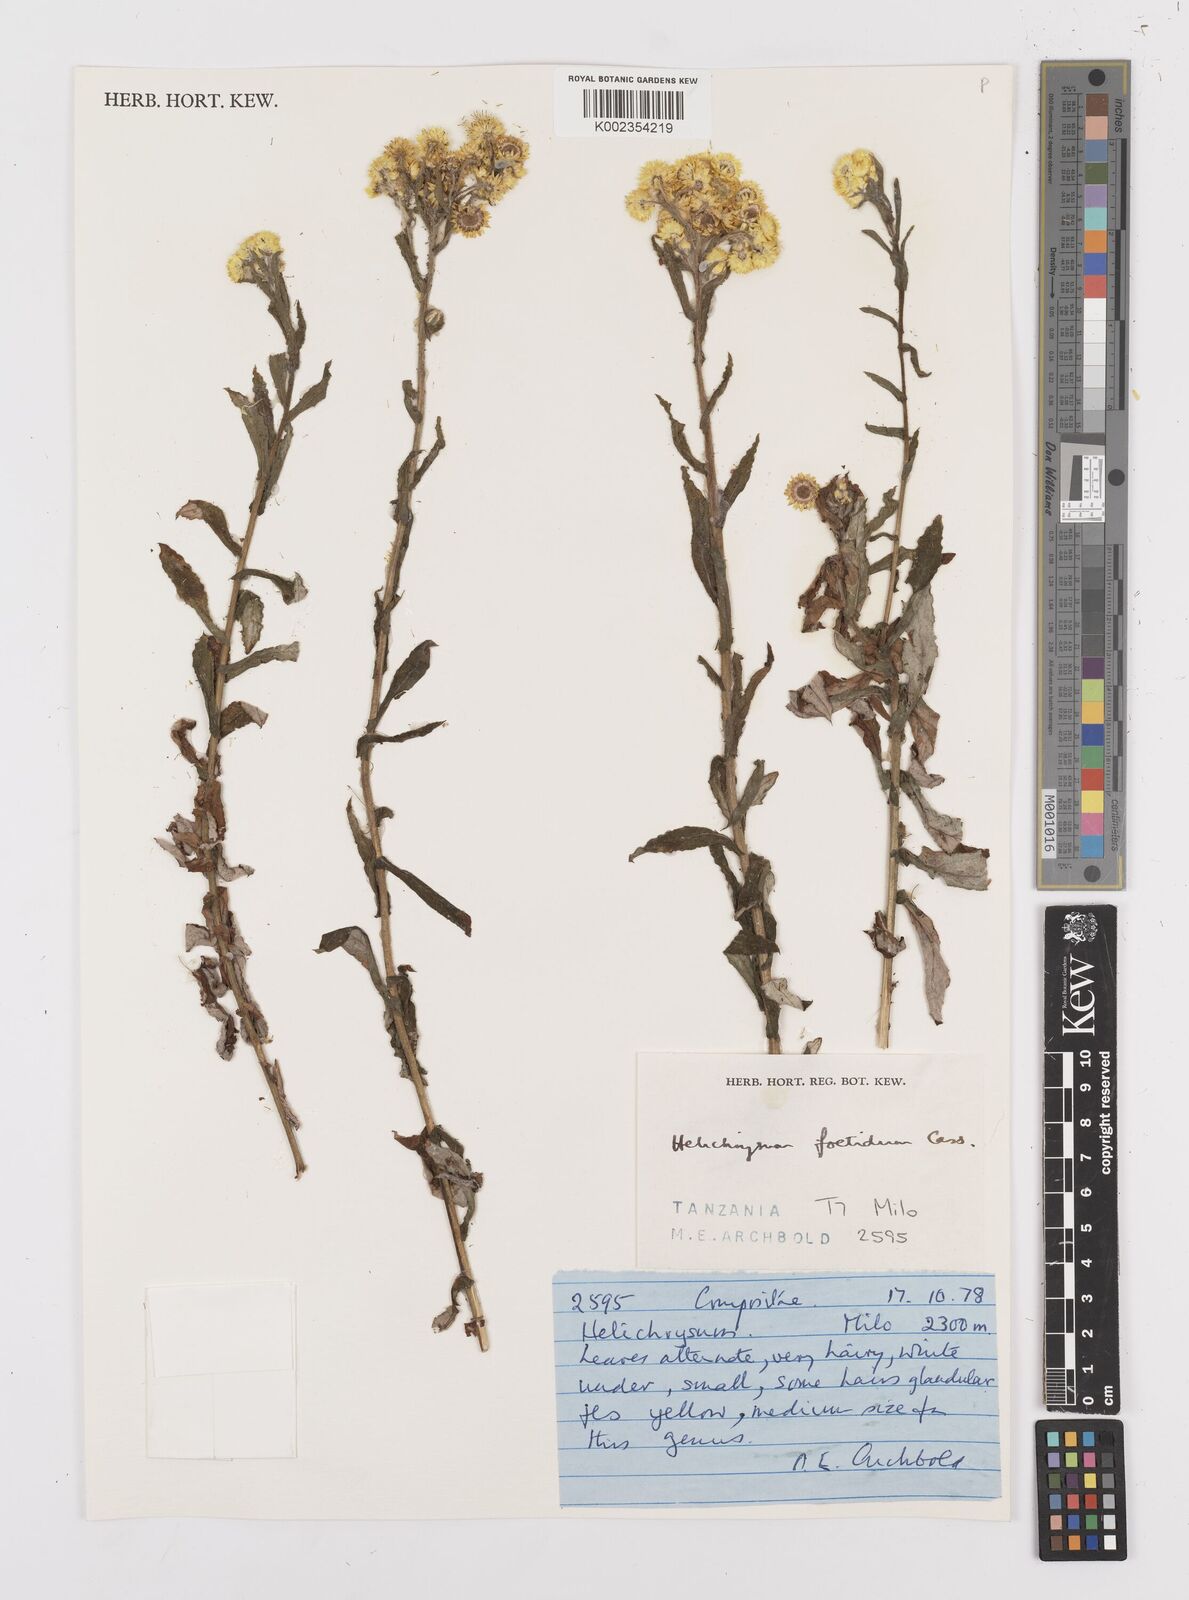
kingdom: Plantae
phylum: Tracheophyta
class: Magnoliopsida
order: Asterales
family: Asteraceae
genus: Helichrysum
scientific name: Helichrysum
